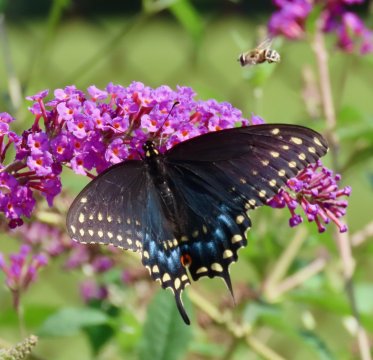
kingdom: Animalia
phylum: Arthropoda
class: Insecta
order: Lepidoptera
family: Papilionidae
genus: Papilio
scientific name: Papilio polyxenes
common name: Black Swallowtail
